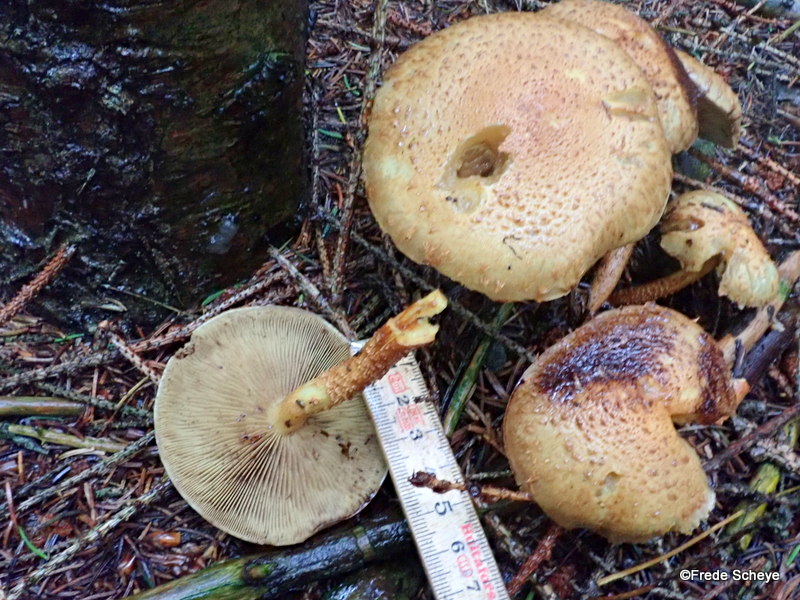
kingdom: Fungi
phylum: Basidiomycota
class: Agaricomycetes
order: Agaricales
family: Strophariaceae
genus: Pholiota
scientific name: Pholiota squarrosa
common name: krumskællet skælhat
